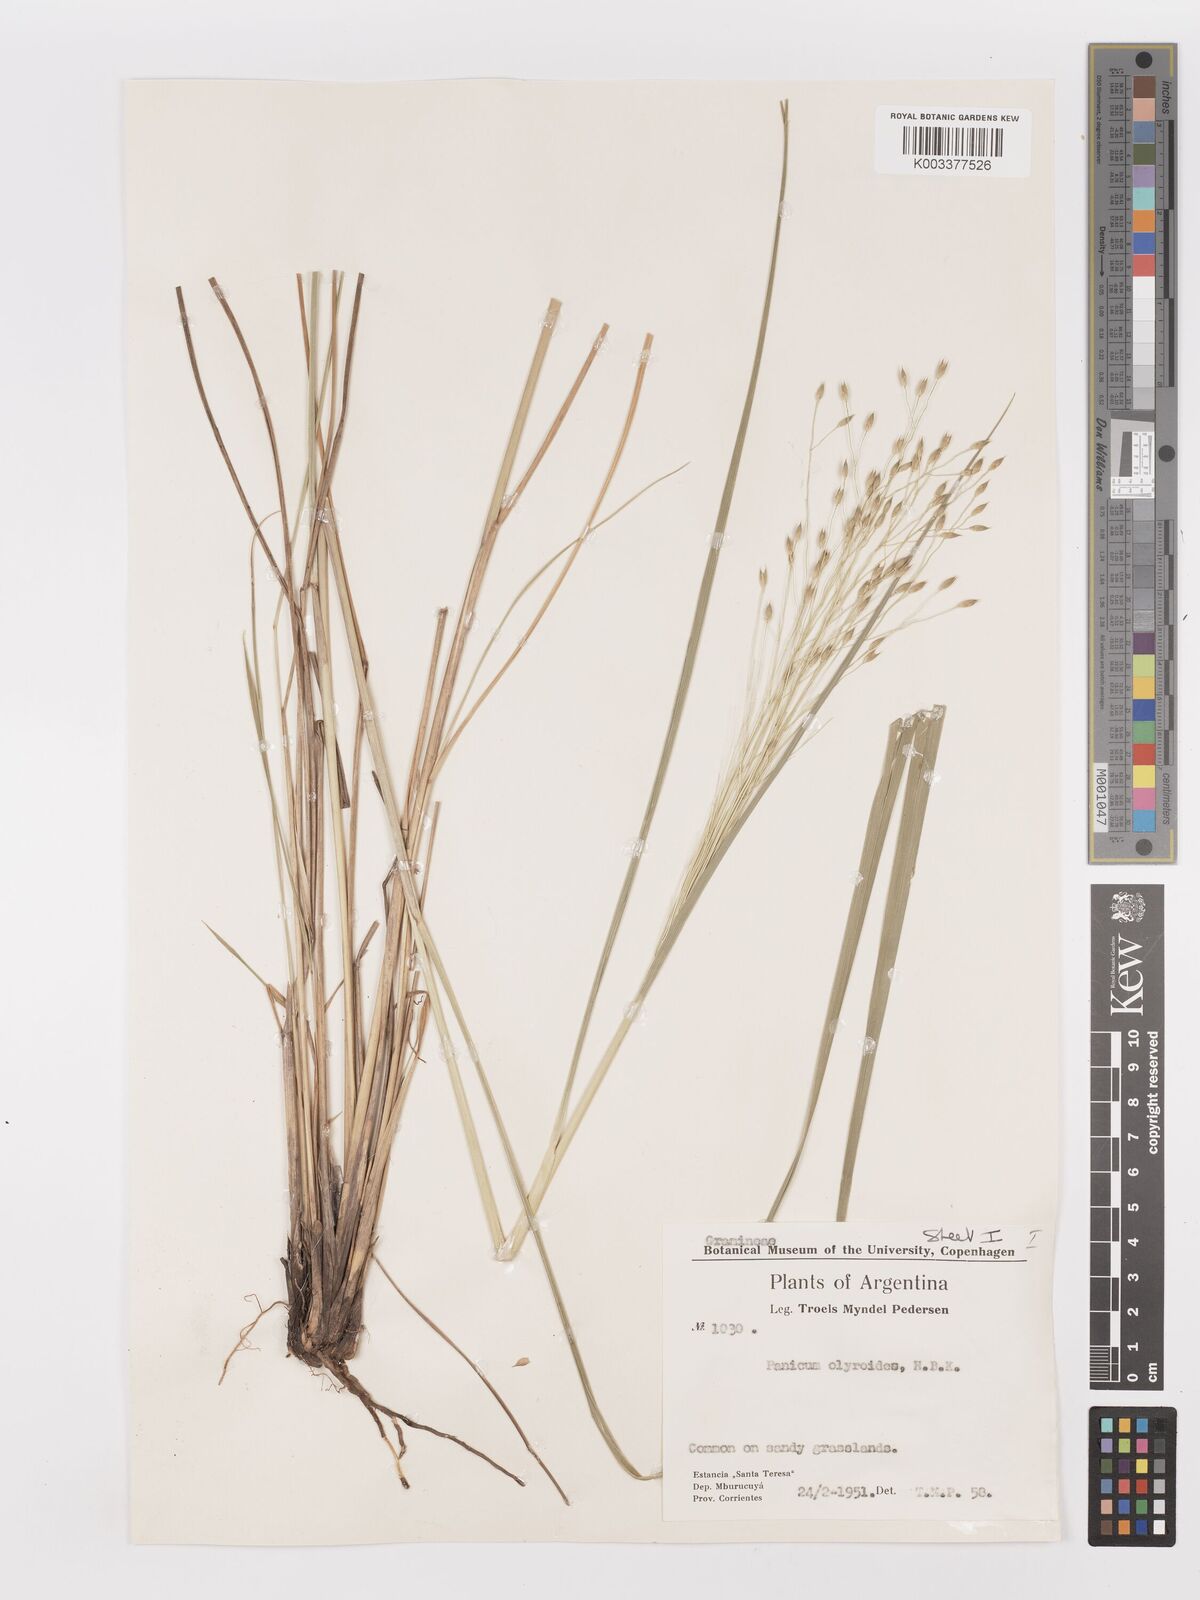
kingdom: Plantae
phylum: Tracheophyta
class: Liliopsida
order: Poales
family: Poaceae
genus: Panicum
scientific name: Panicum olyroides
